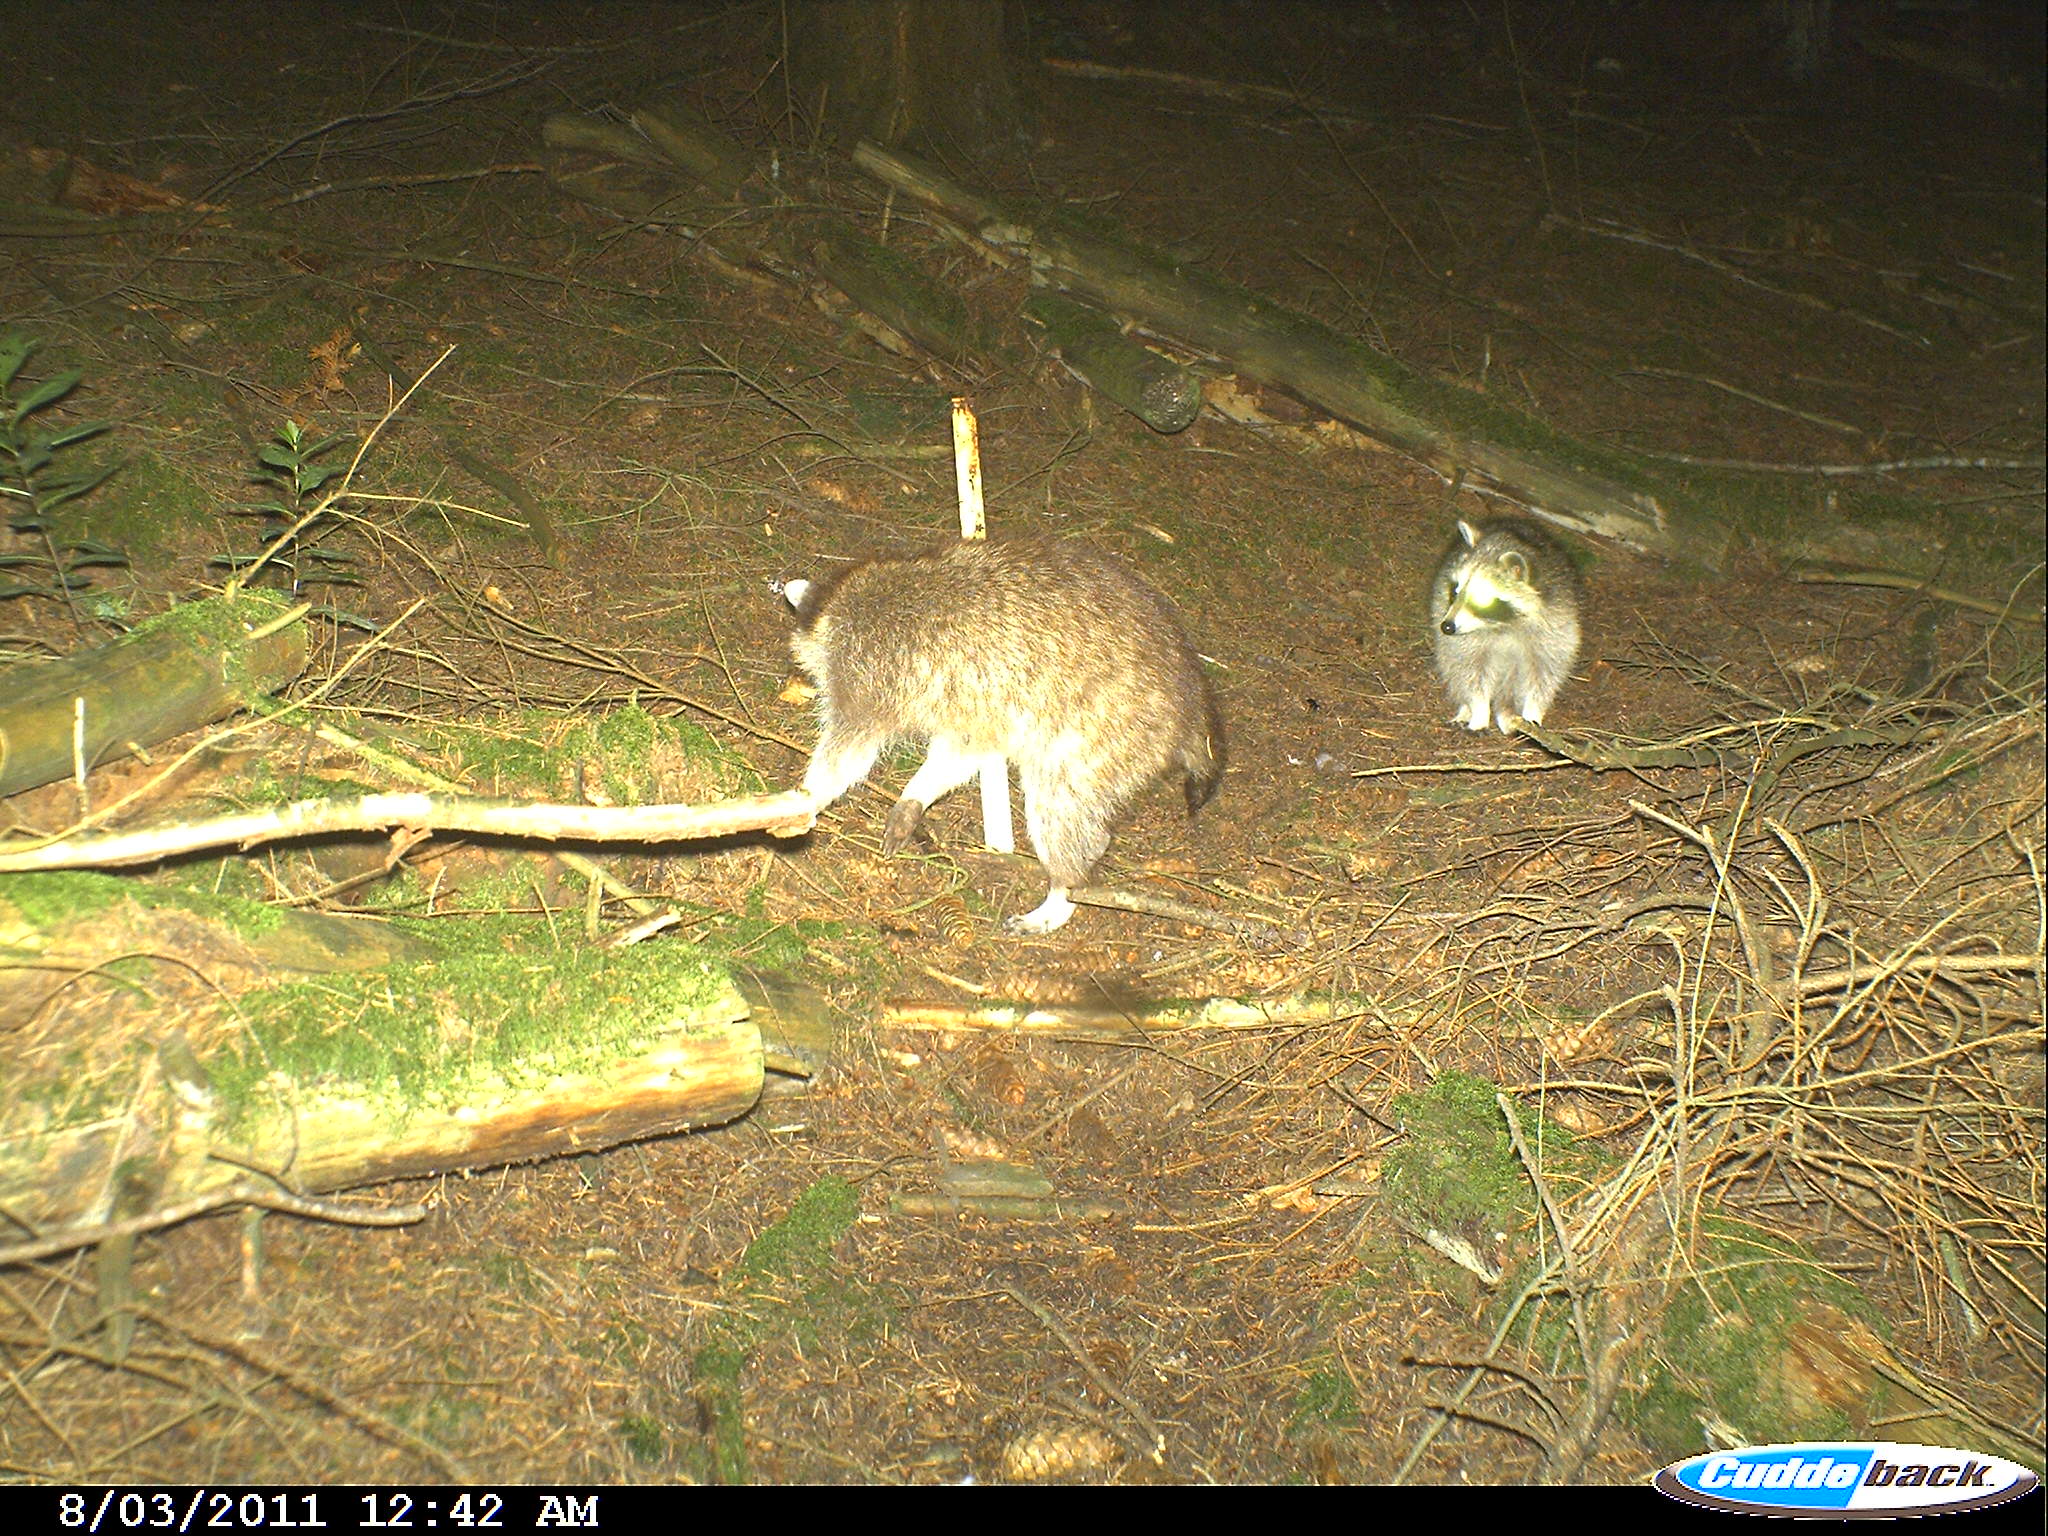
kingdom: Animalia
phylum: Chordata
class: Mammalia
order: Carnivora
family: Procyonidae
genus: Procyon
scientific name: Procyon lotor
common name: Raccoon
